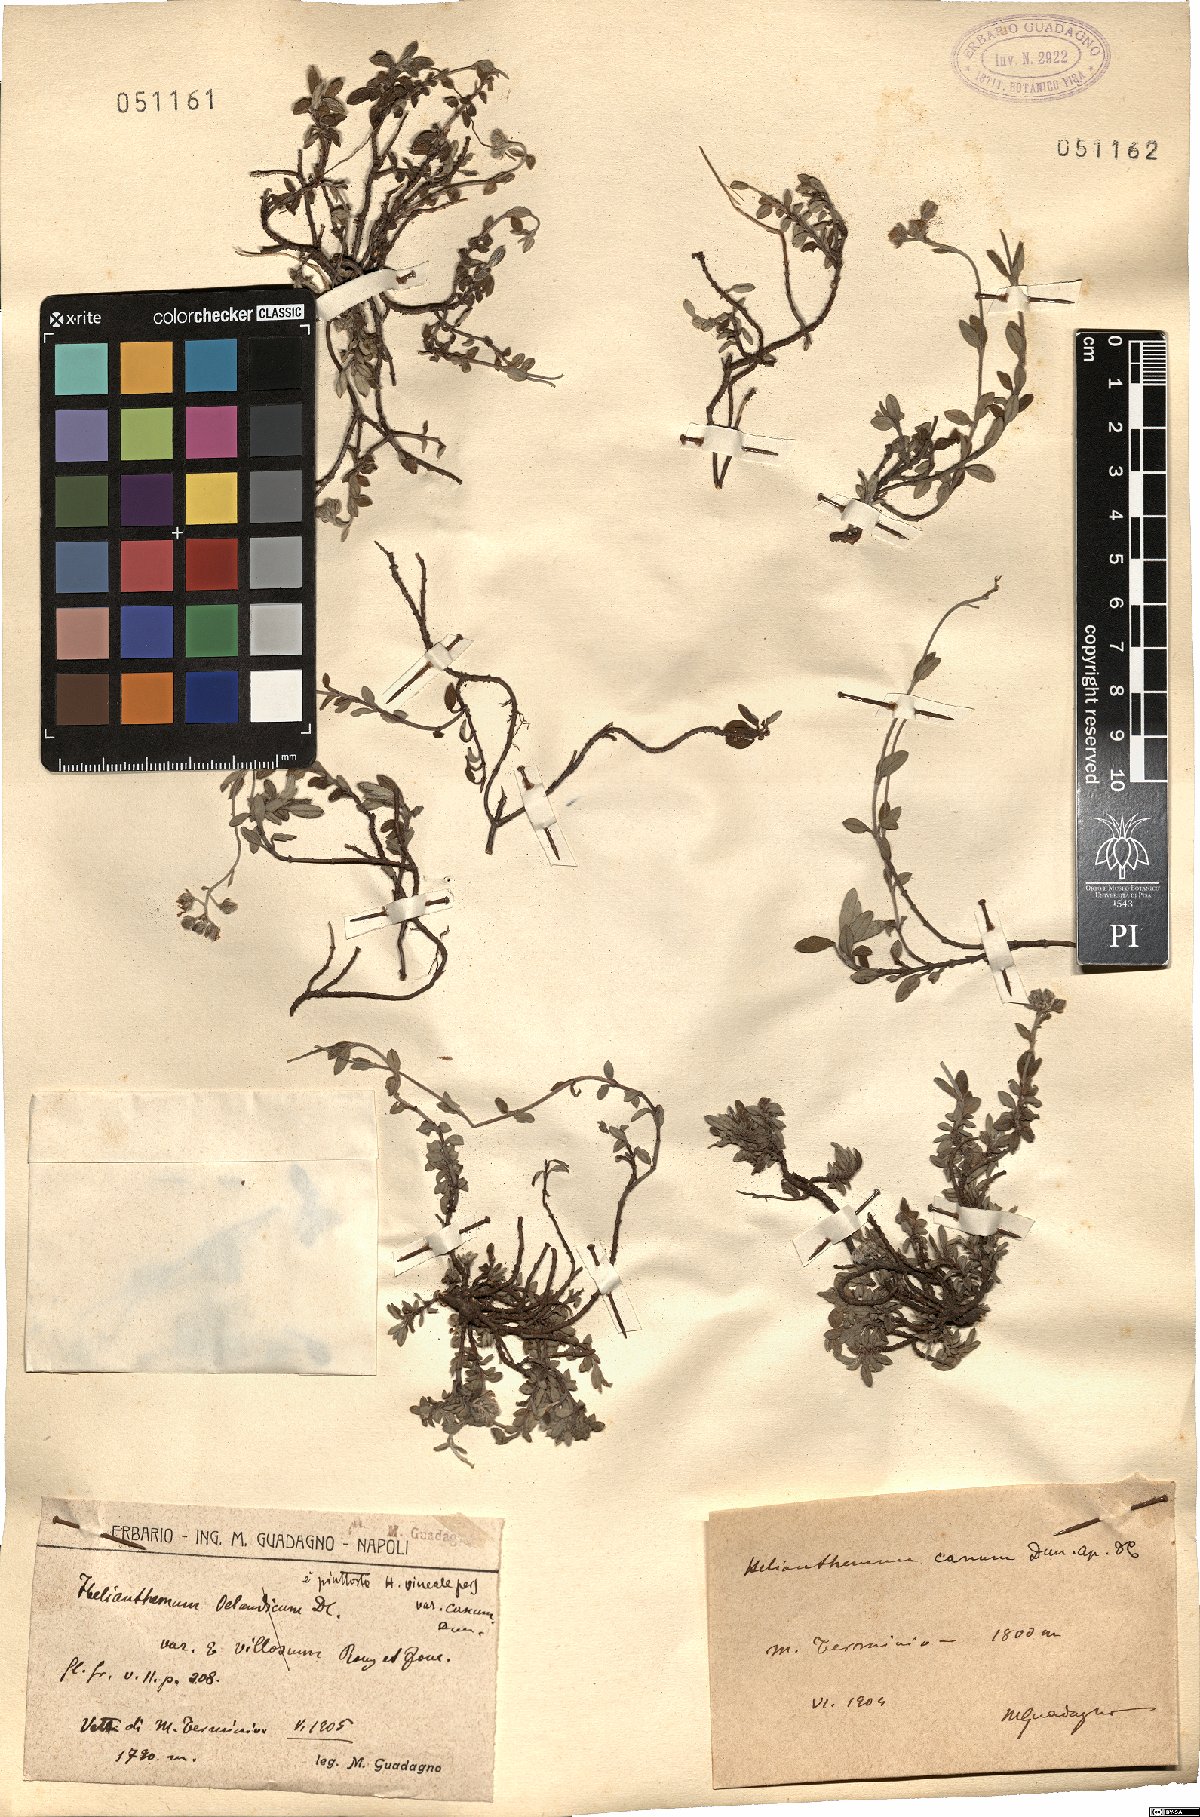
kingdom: Plantae
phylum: Tracheophyta
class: Magnoliopsida
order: Malvales
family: Cistaceae
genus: Helianthemum
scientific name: Helianthemum canum
